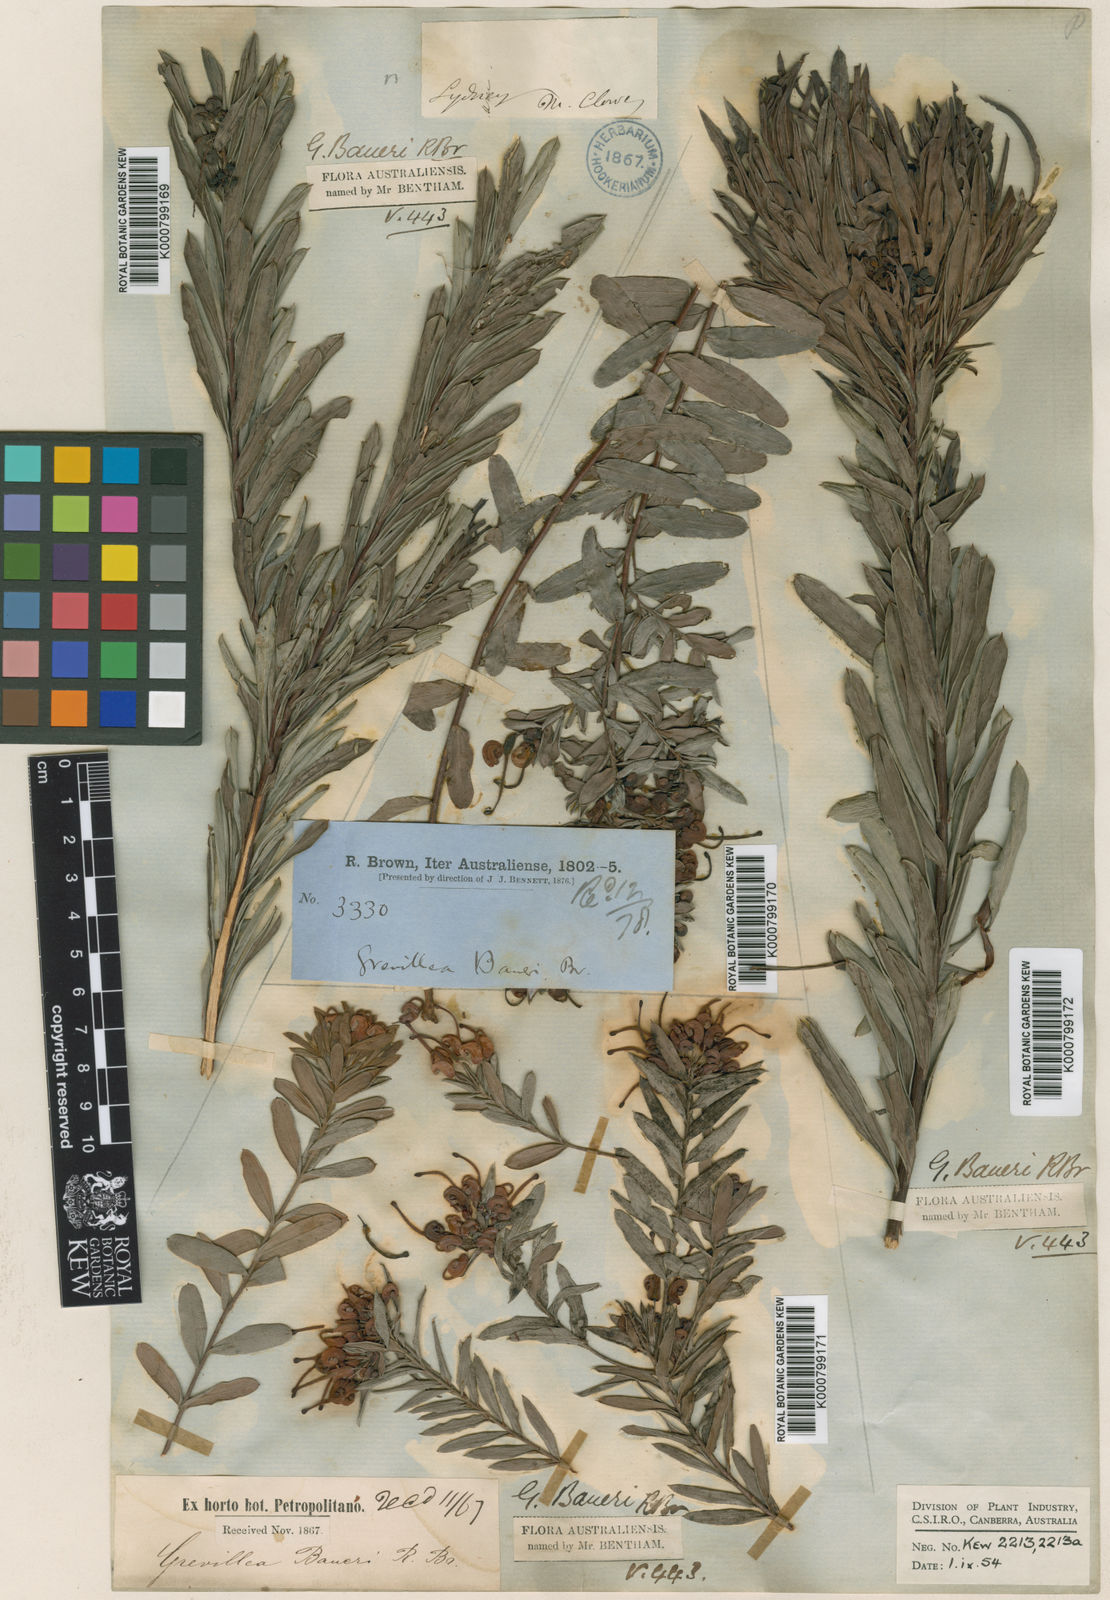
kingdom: Plantae
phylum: Tracheophyta
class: Magnoliopsida
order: Proteales
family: Proteaceae
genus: Grevillea
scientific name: Grevillea baueri
